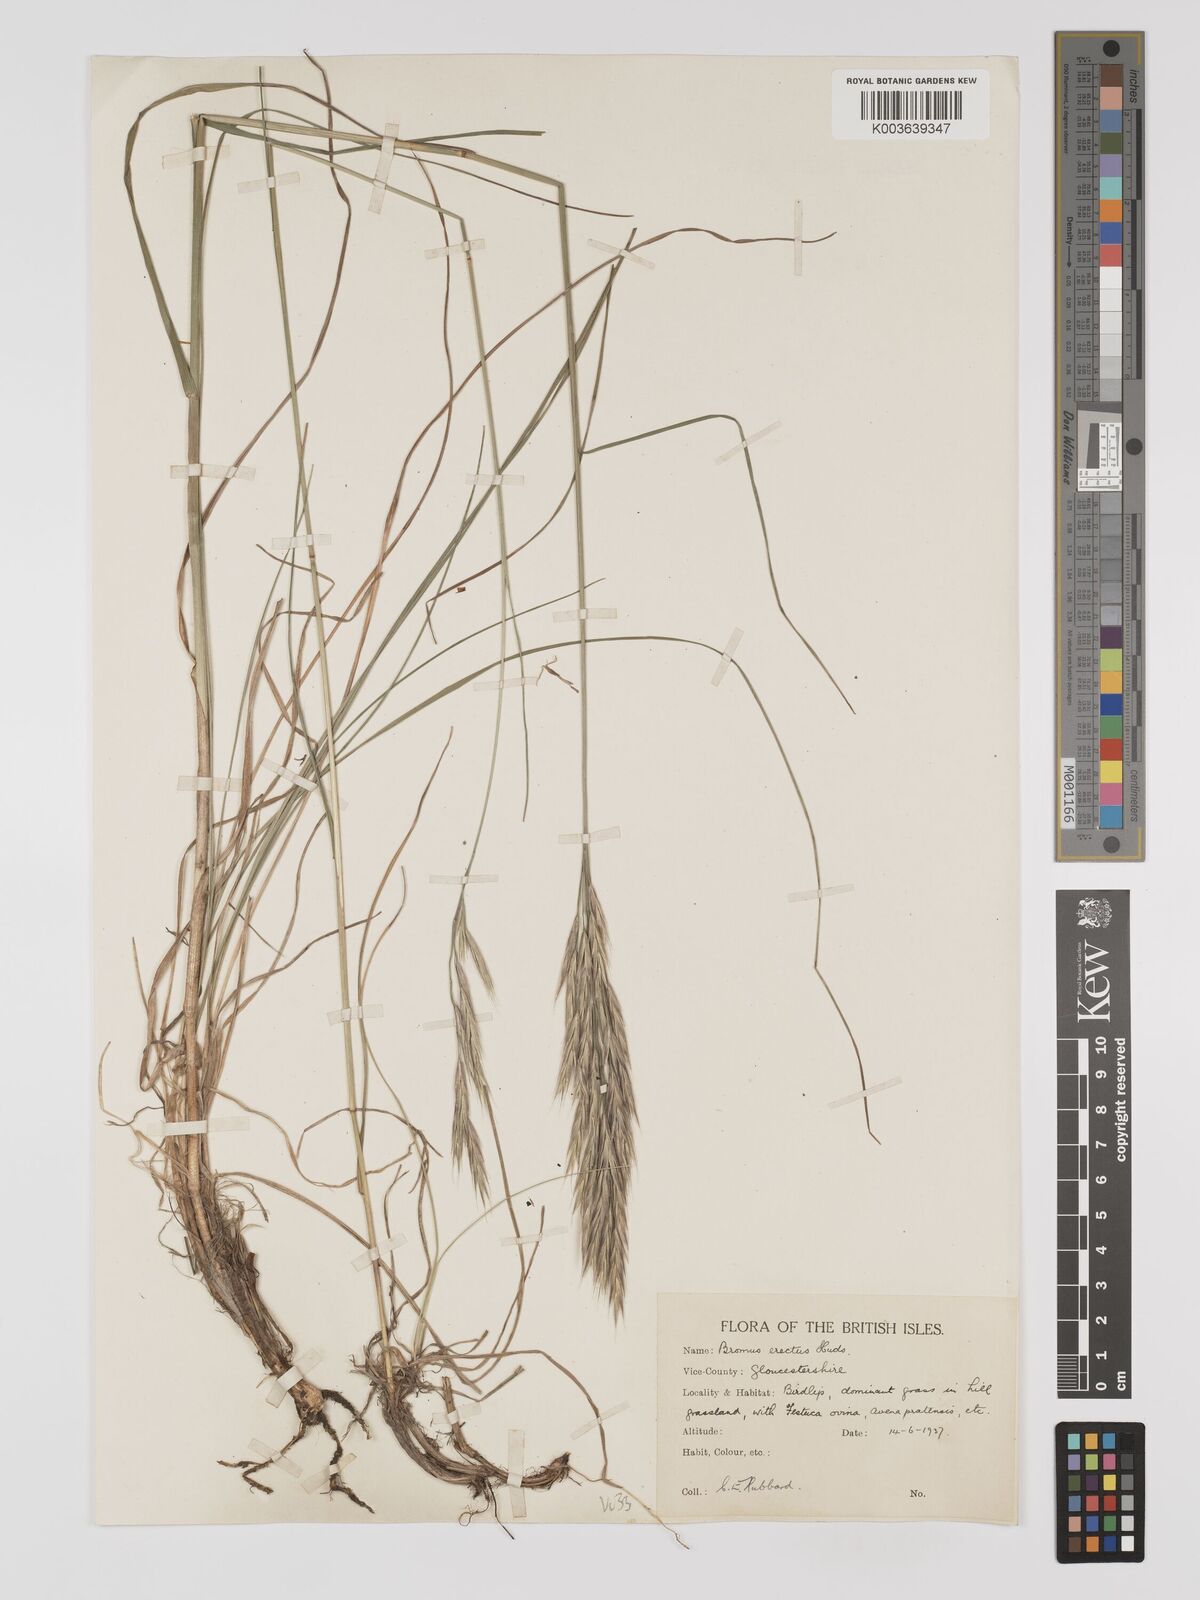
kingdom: Plantae
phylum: Tracheophyta
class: Liliopsida
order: Poales
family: Poaceae
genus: Bromus
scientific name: Bromus erectus
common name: Erect brome
